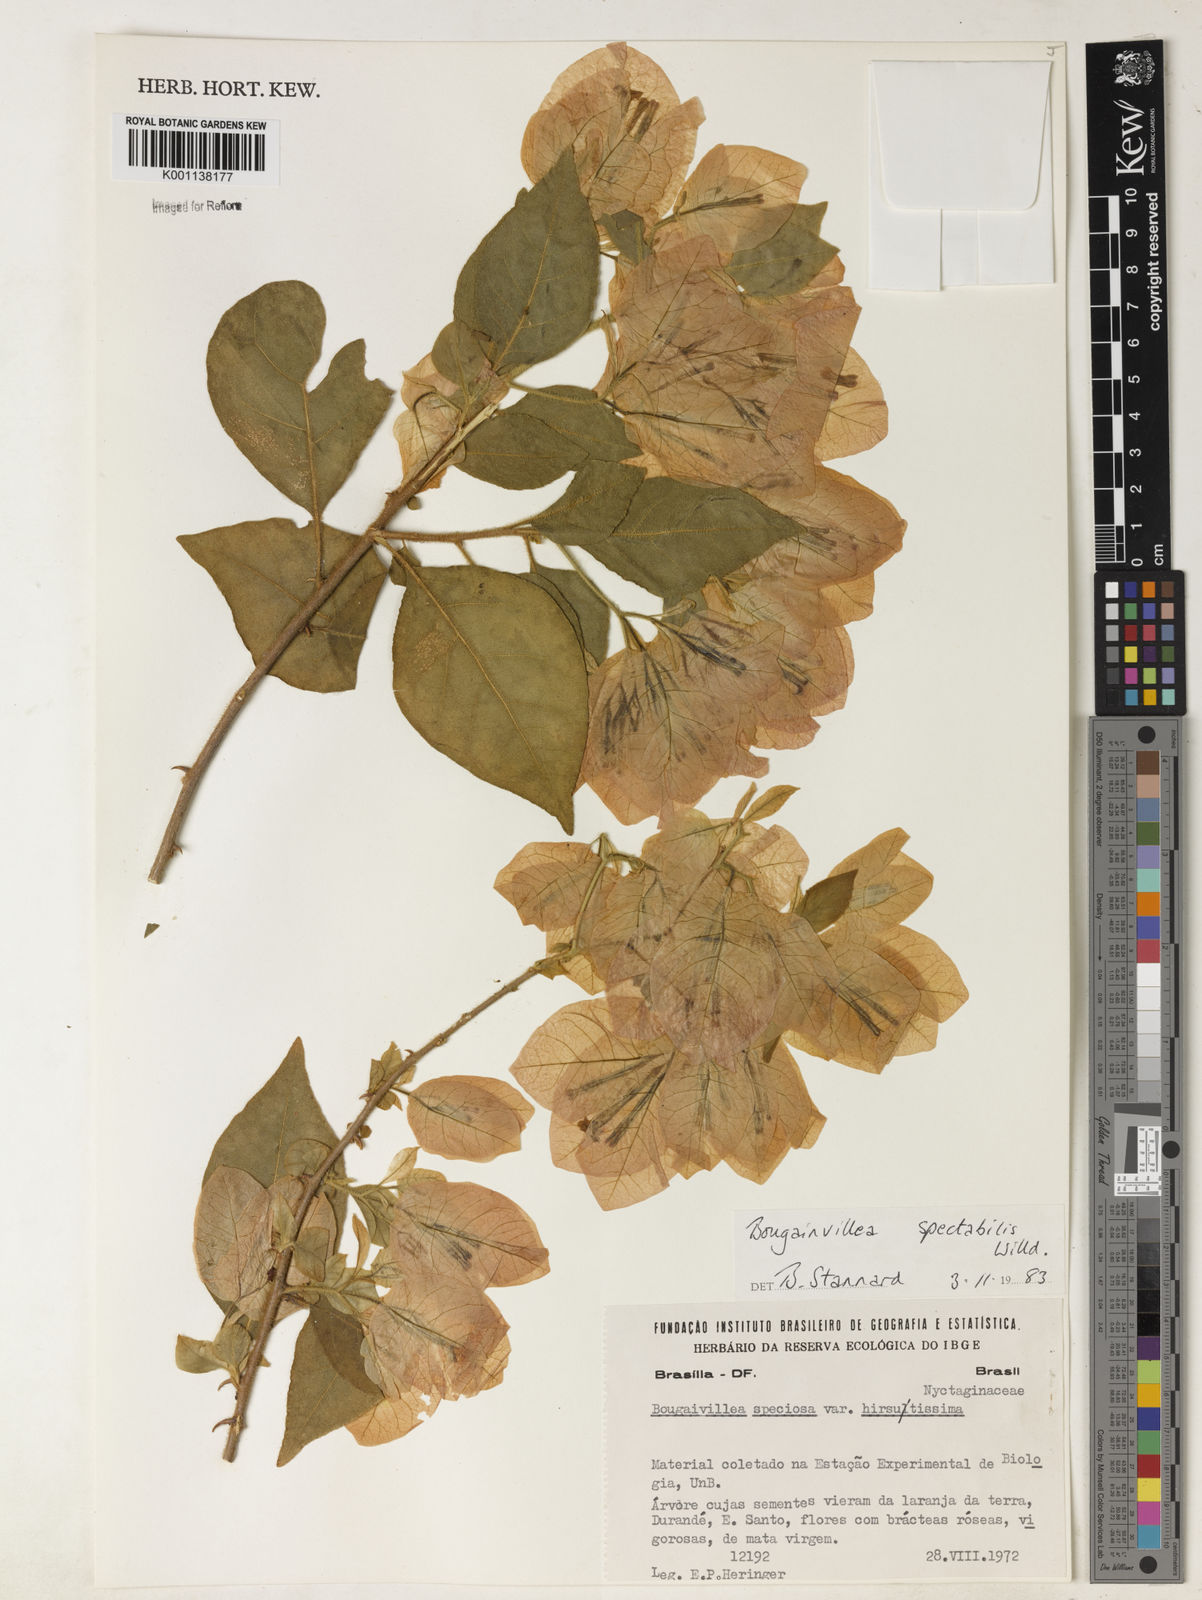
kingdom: Plantae
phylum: Tracheophyta
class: Magnoliopsida
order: Caryophyllales
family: Nyctaginaceae
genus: Bougainvillea
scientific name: Bougainvillea spectabilis
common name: Great bougainvillea
